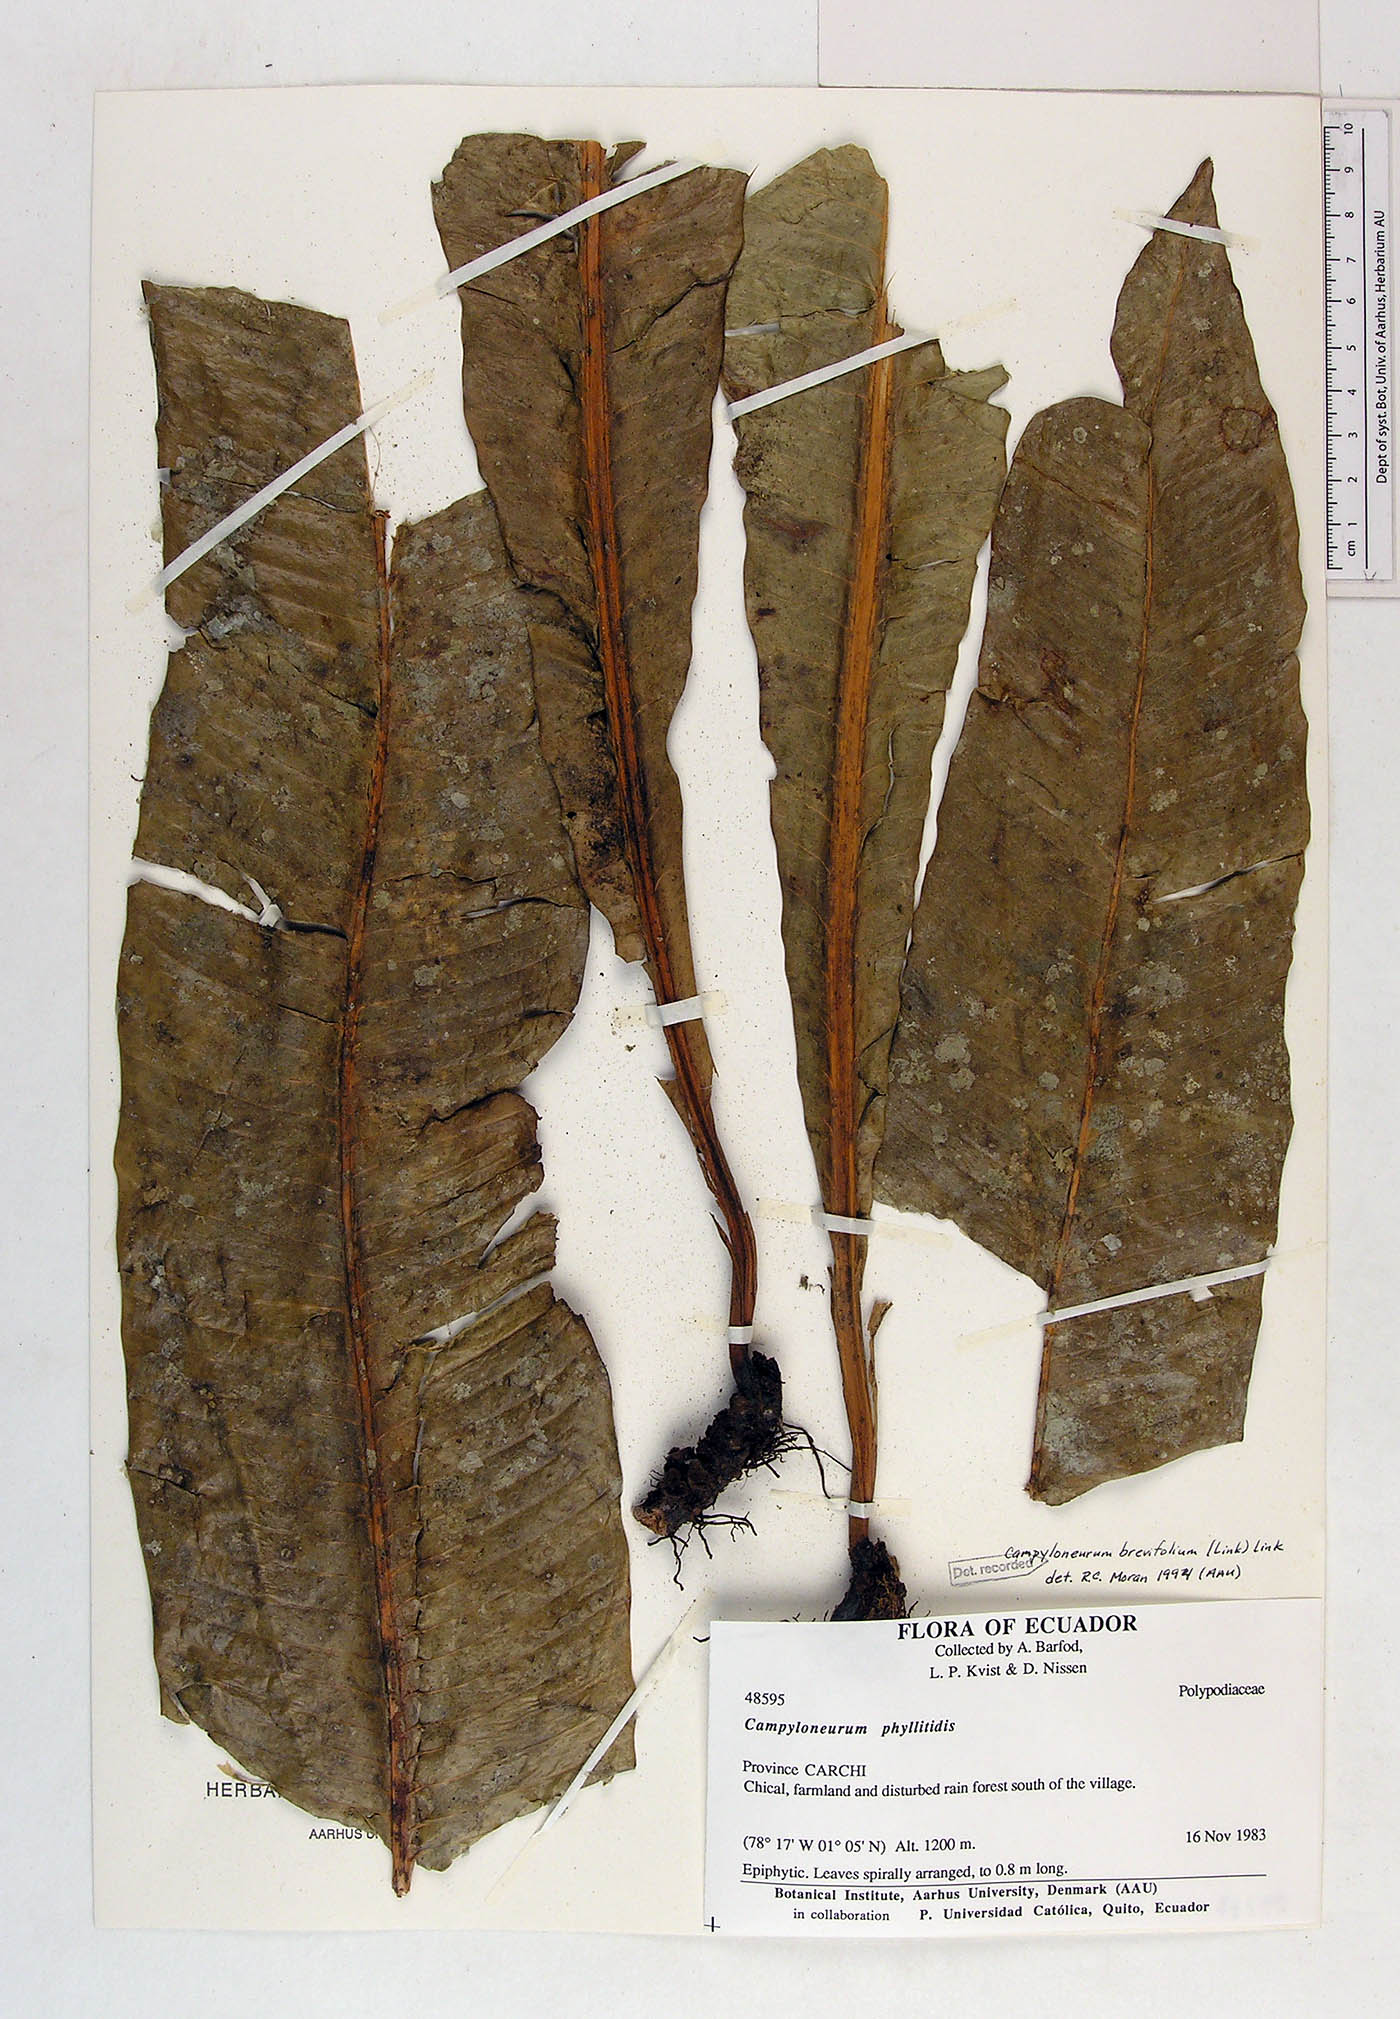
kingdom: Plantae
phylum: Tracheophyta
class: Polypodiopsida
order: Polypodiales
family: Polypodiaceae
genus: Campyloneurum
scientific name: Campyloneurum brevifolium
